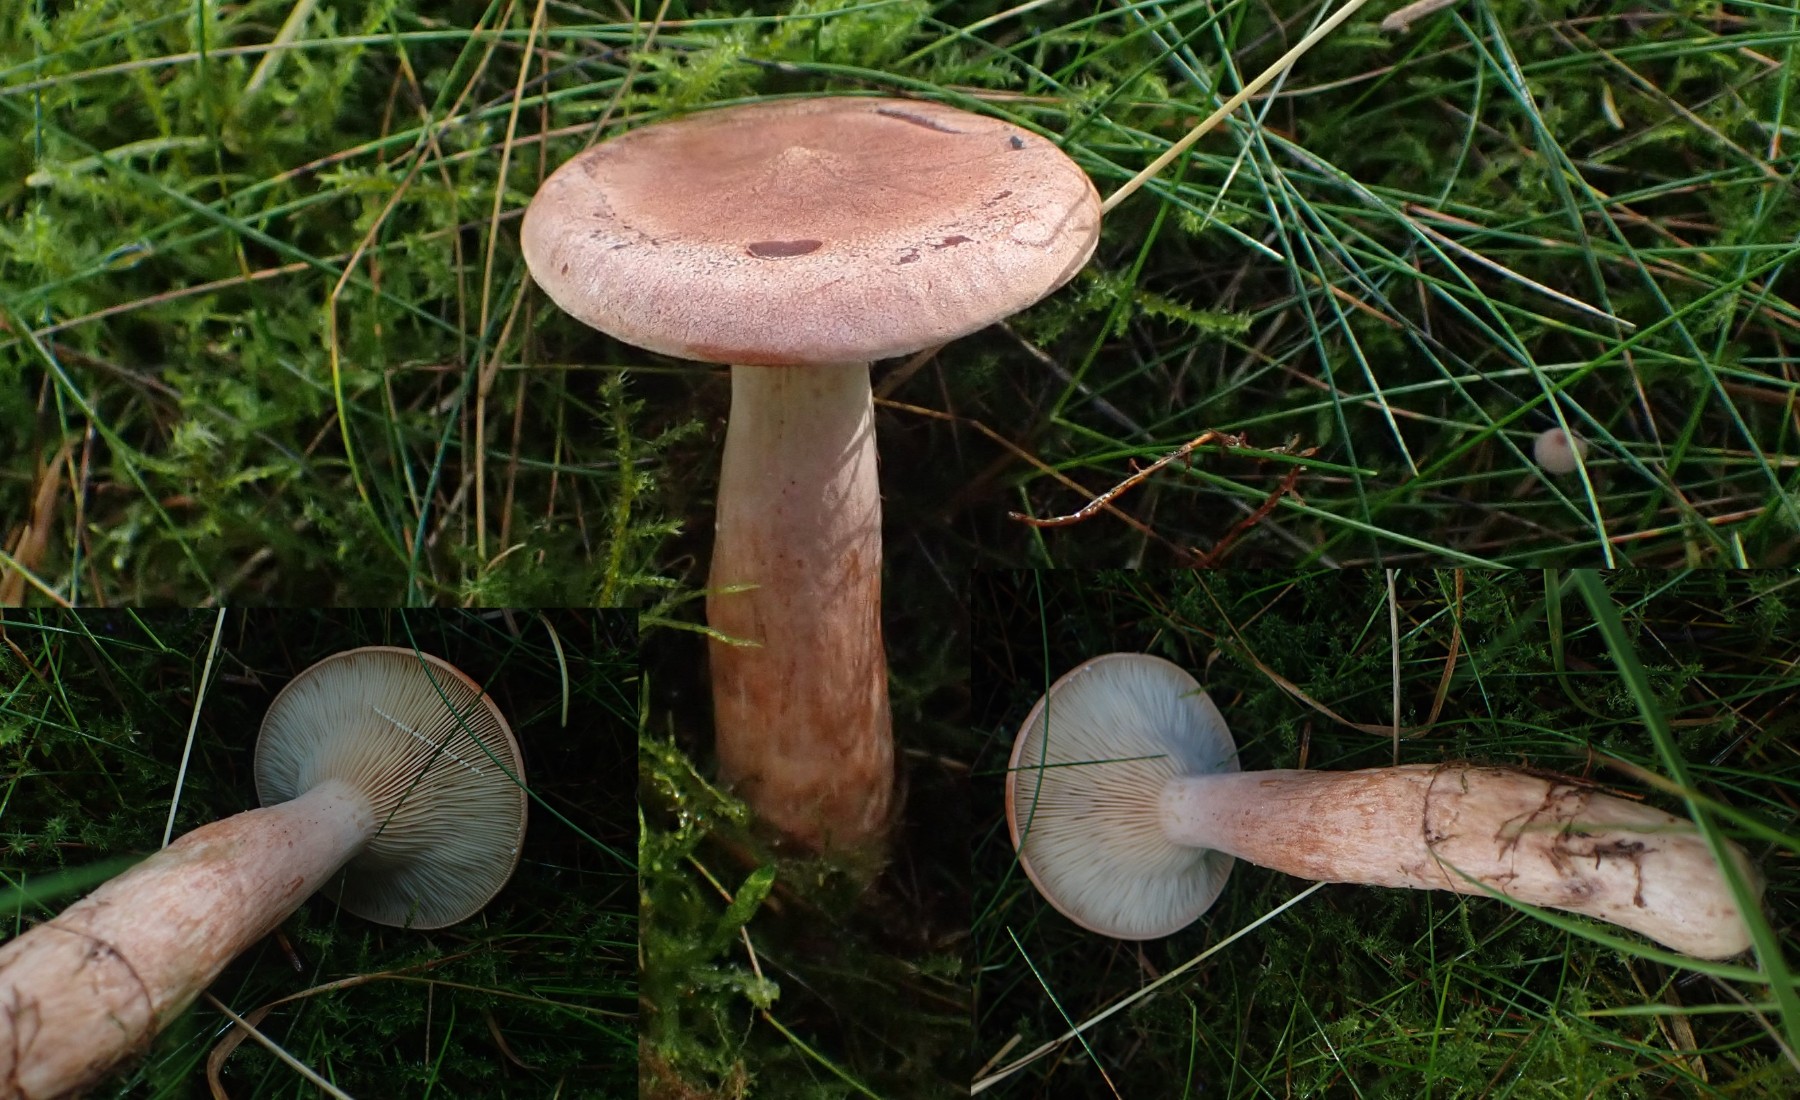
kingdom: Fungi
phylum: Basidiomycota
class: Agaricomycetes
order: Russulales
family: Russulaceae
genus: Lactarius
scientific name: Lactarius rufus
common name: rødbrun mælkehat
